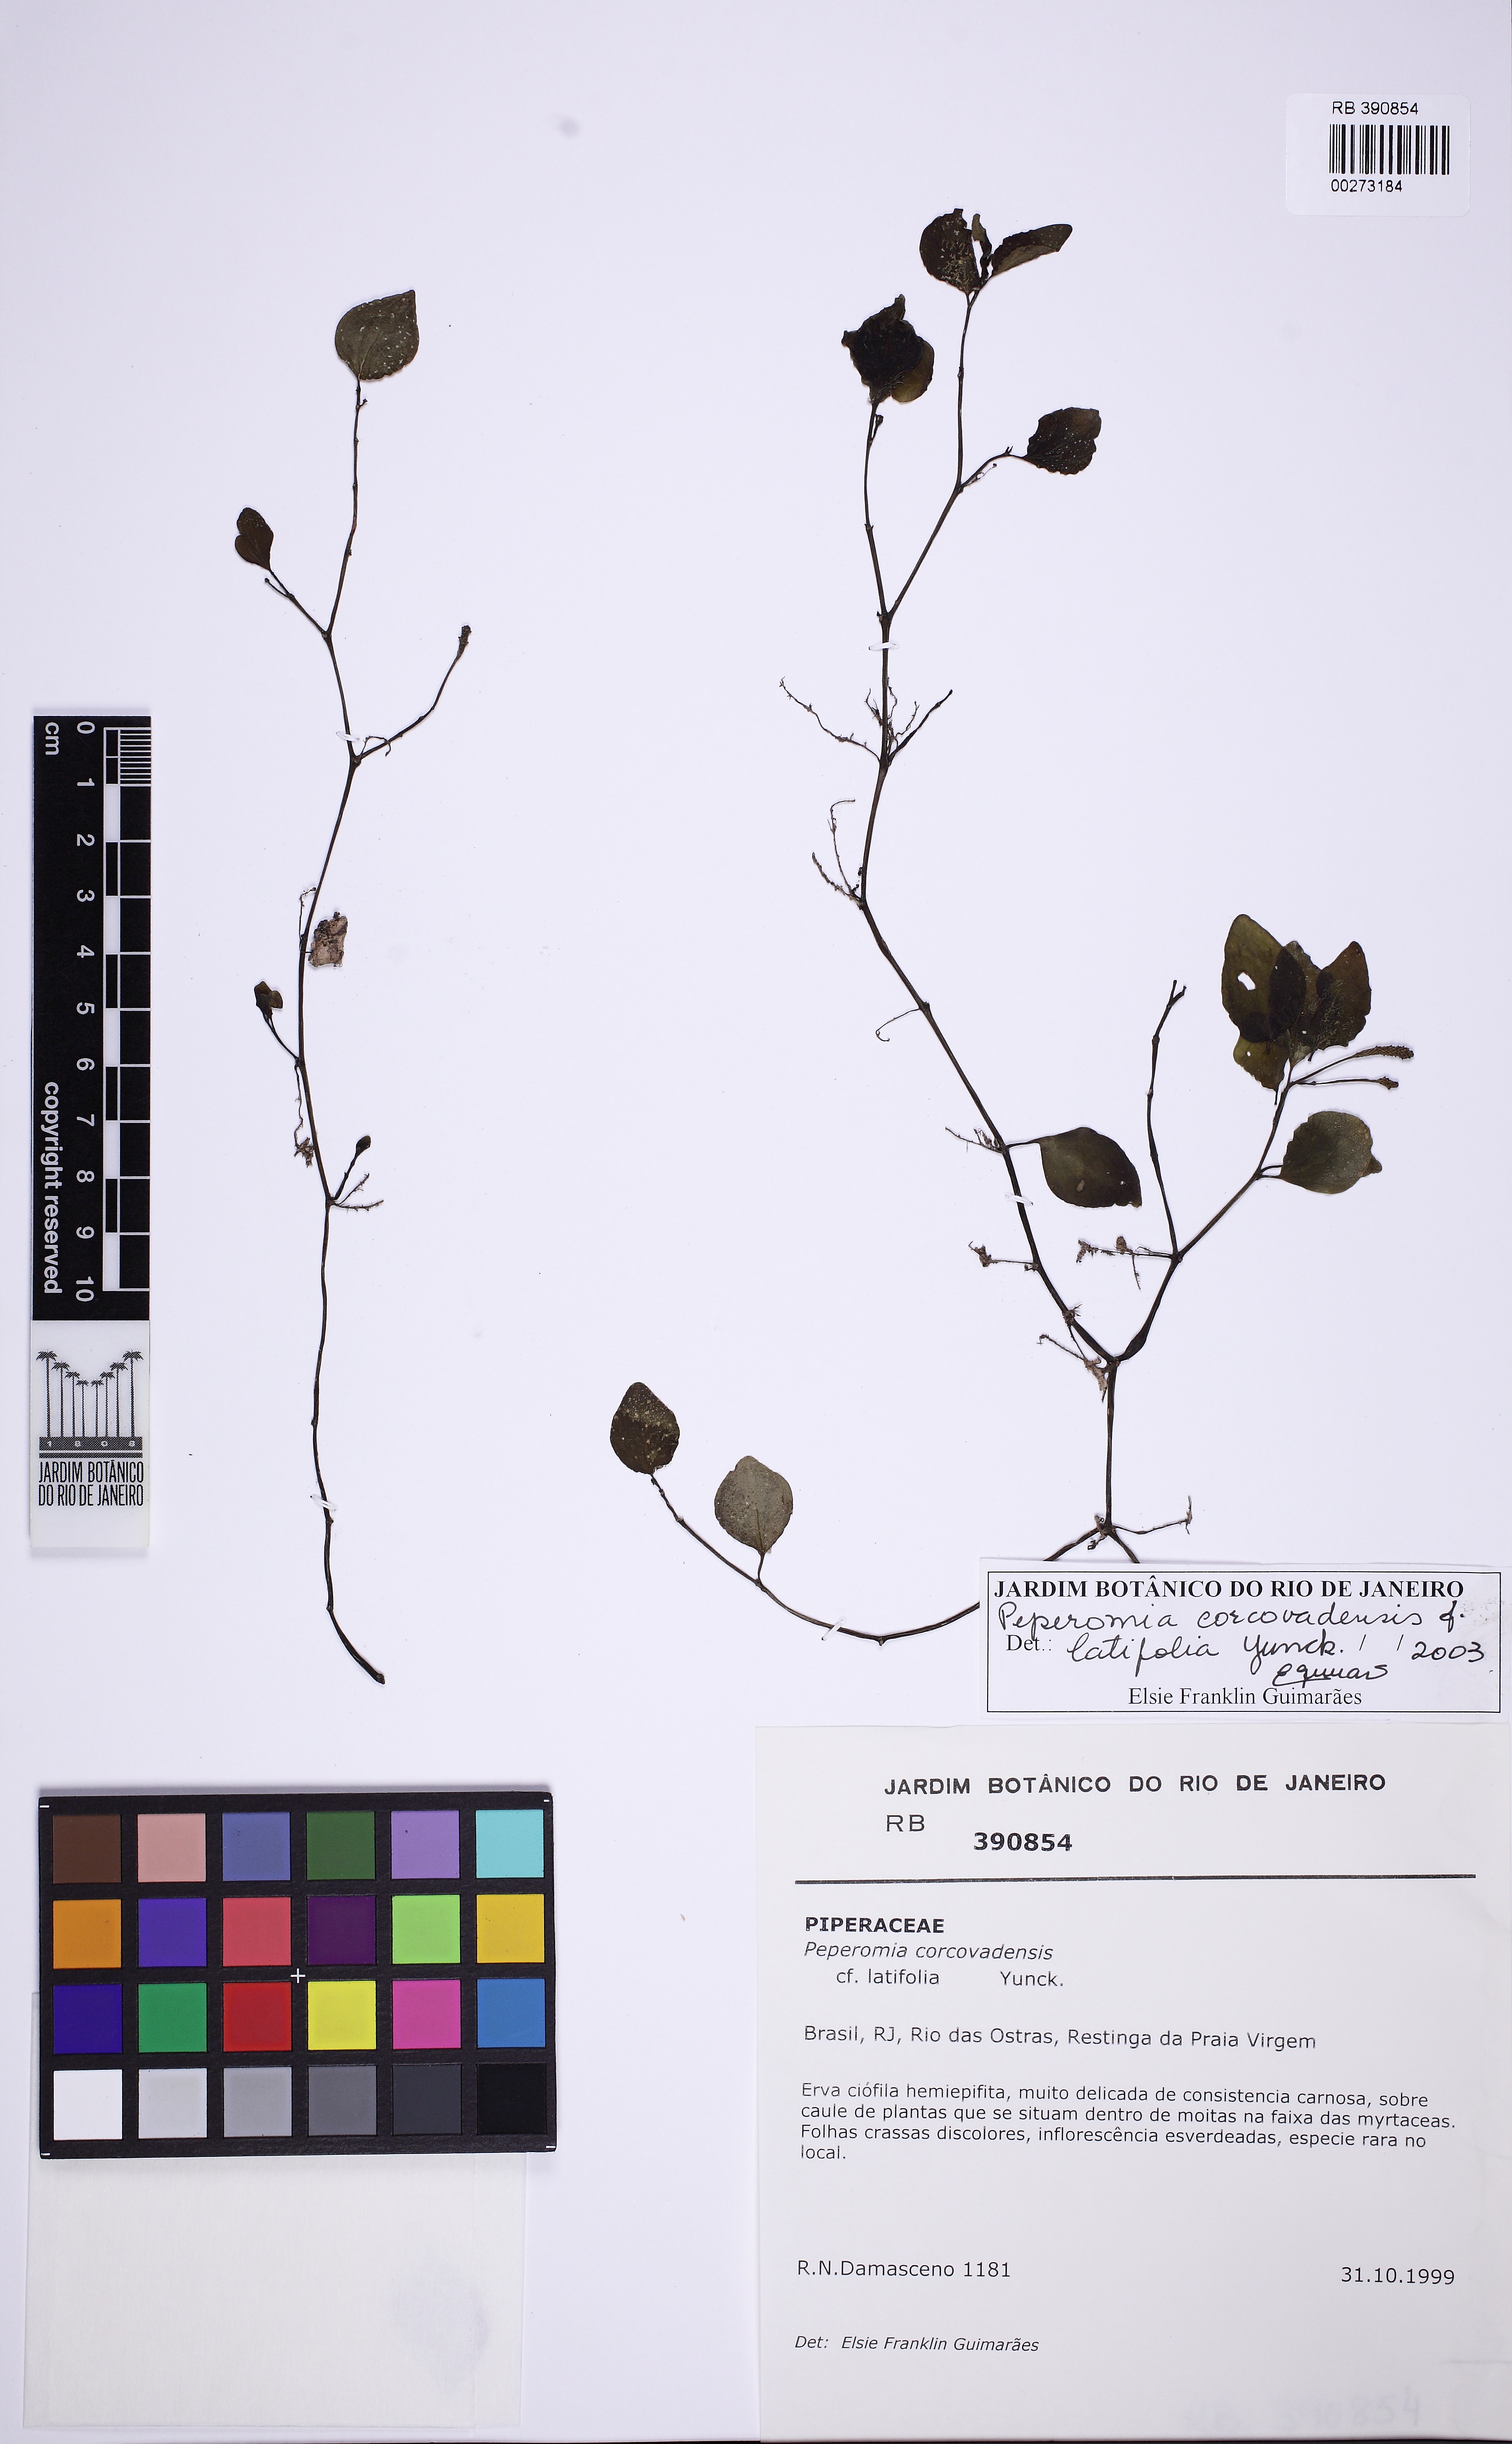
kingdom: Plantae
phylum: Tracheophyta
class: Magnoliopsida
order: Piperales
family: Piperaceae
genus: Peperomia
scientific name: Peperomia corcovadensis
